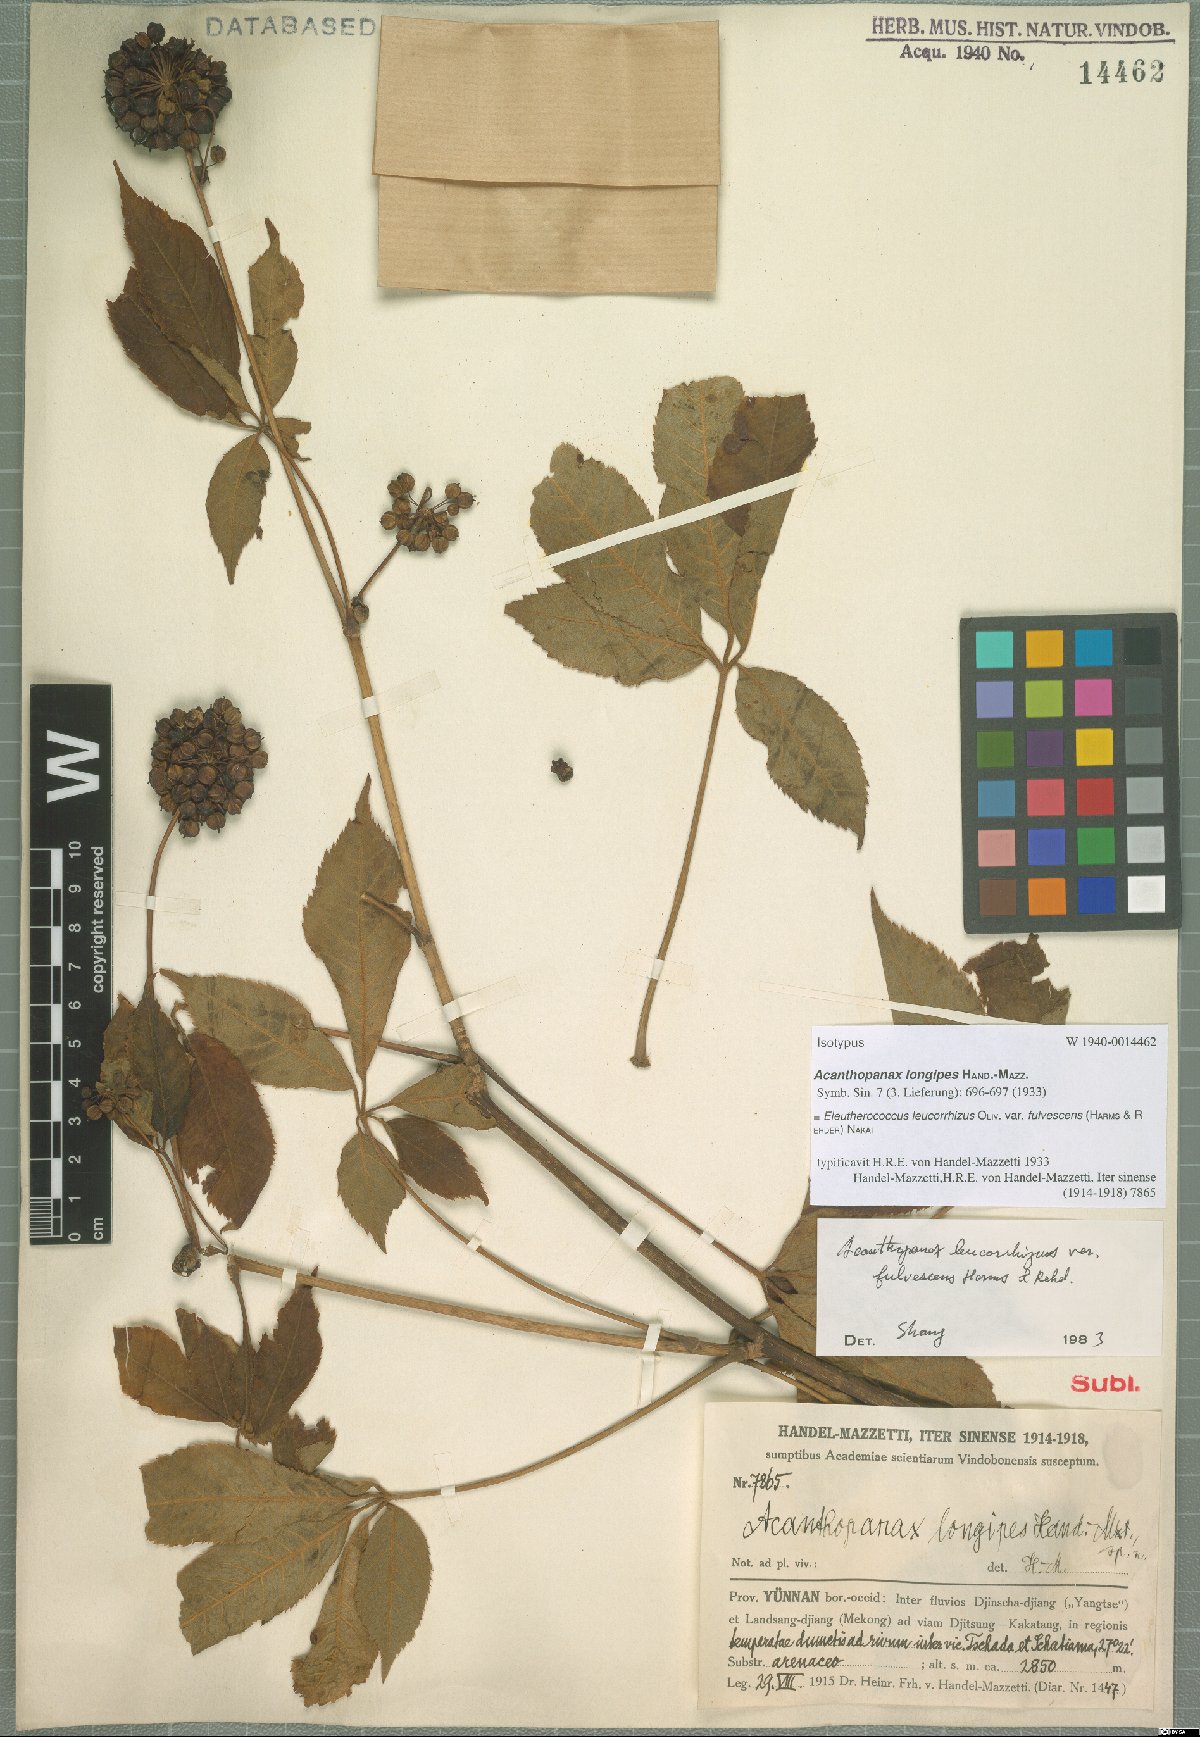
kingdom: Plantae
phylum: Tracheophyta
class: Magnoliopsida
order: Apiales
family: Araliaceae
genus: Eleutherococcus
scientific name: Eleutherococcus leucorrhizus
